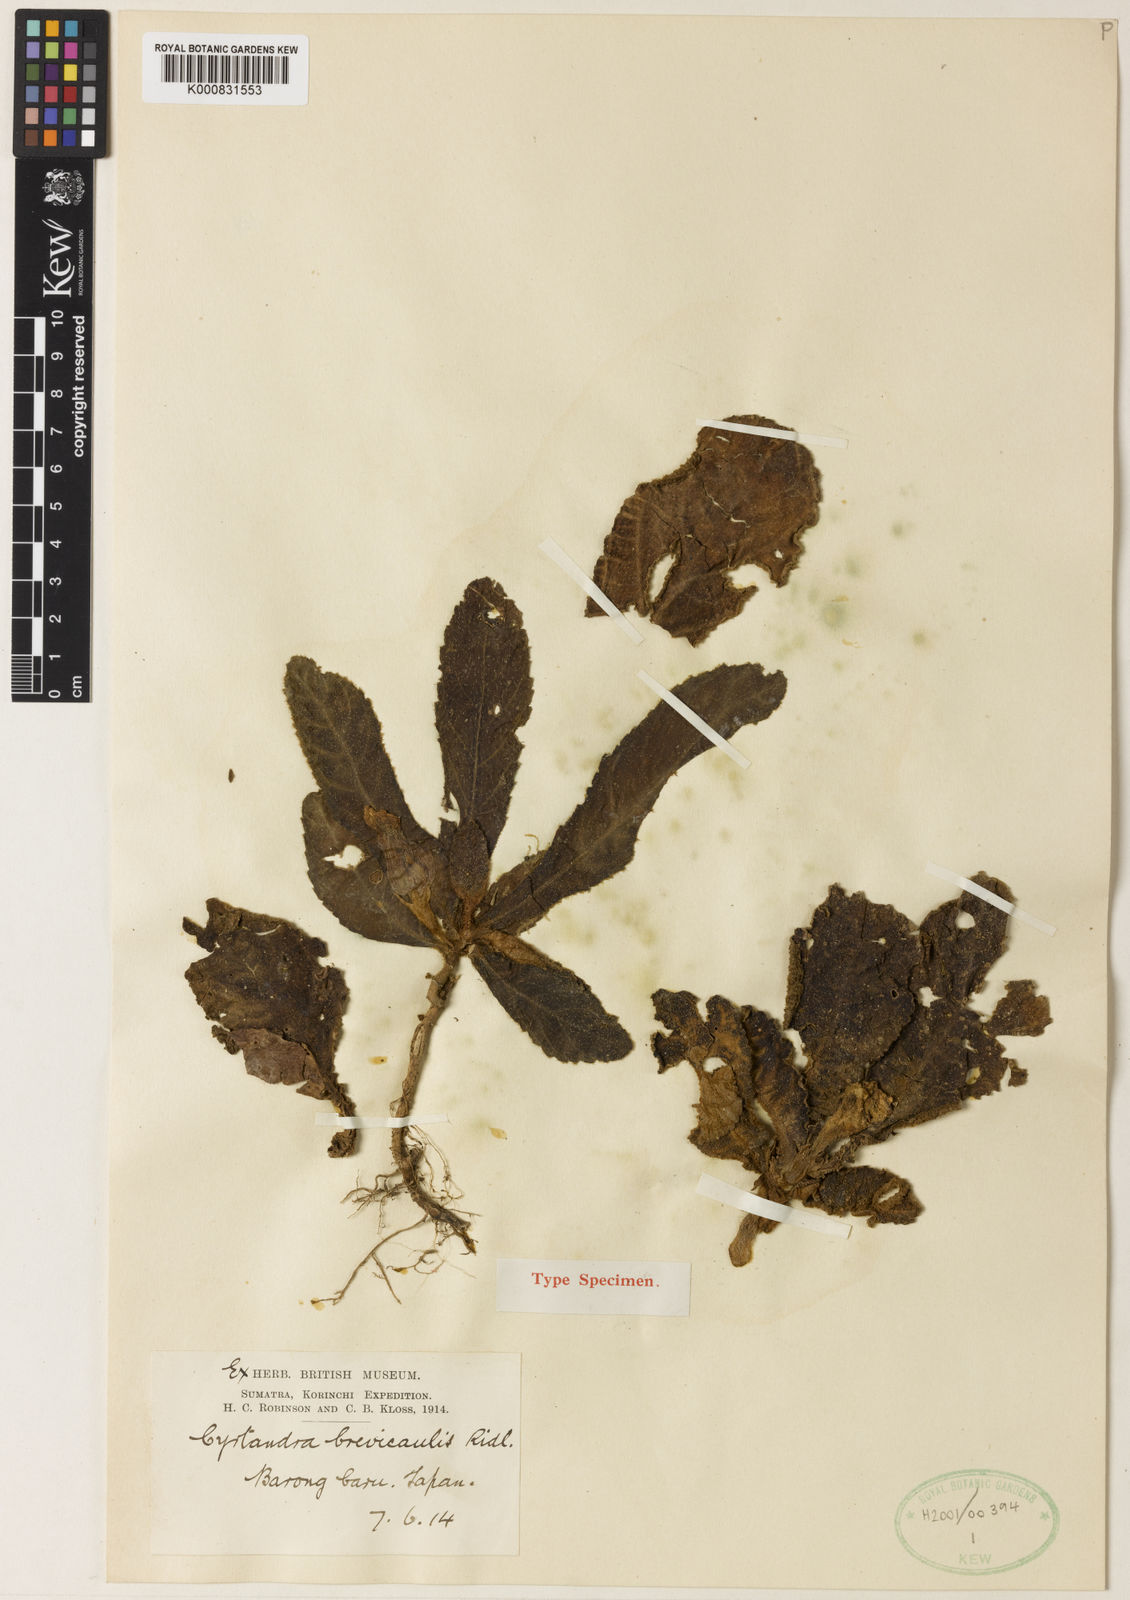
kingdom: Plantae
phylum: Tracheophyta
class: Magnoliopsida
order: Lamiales
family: Gesneriaceae
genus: Cyrtandra
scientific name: Cyrtandra brevicaulis
